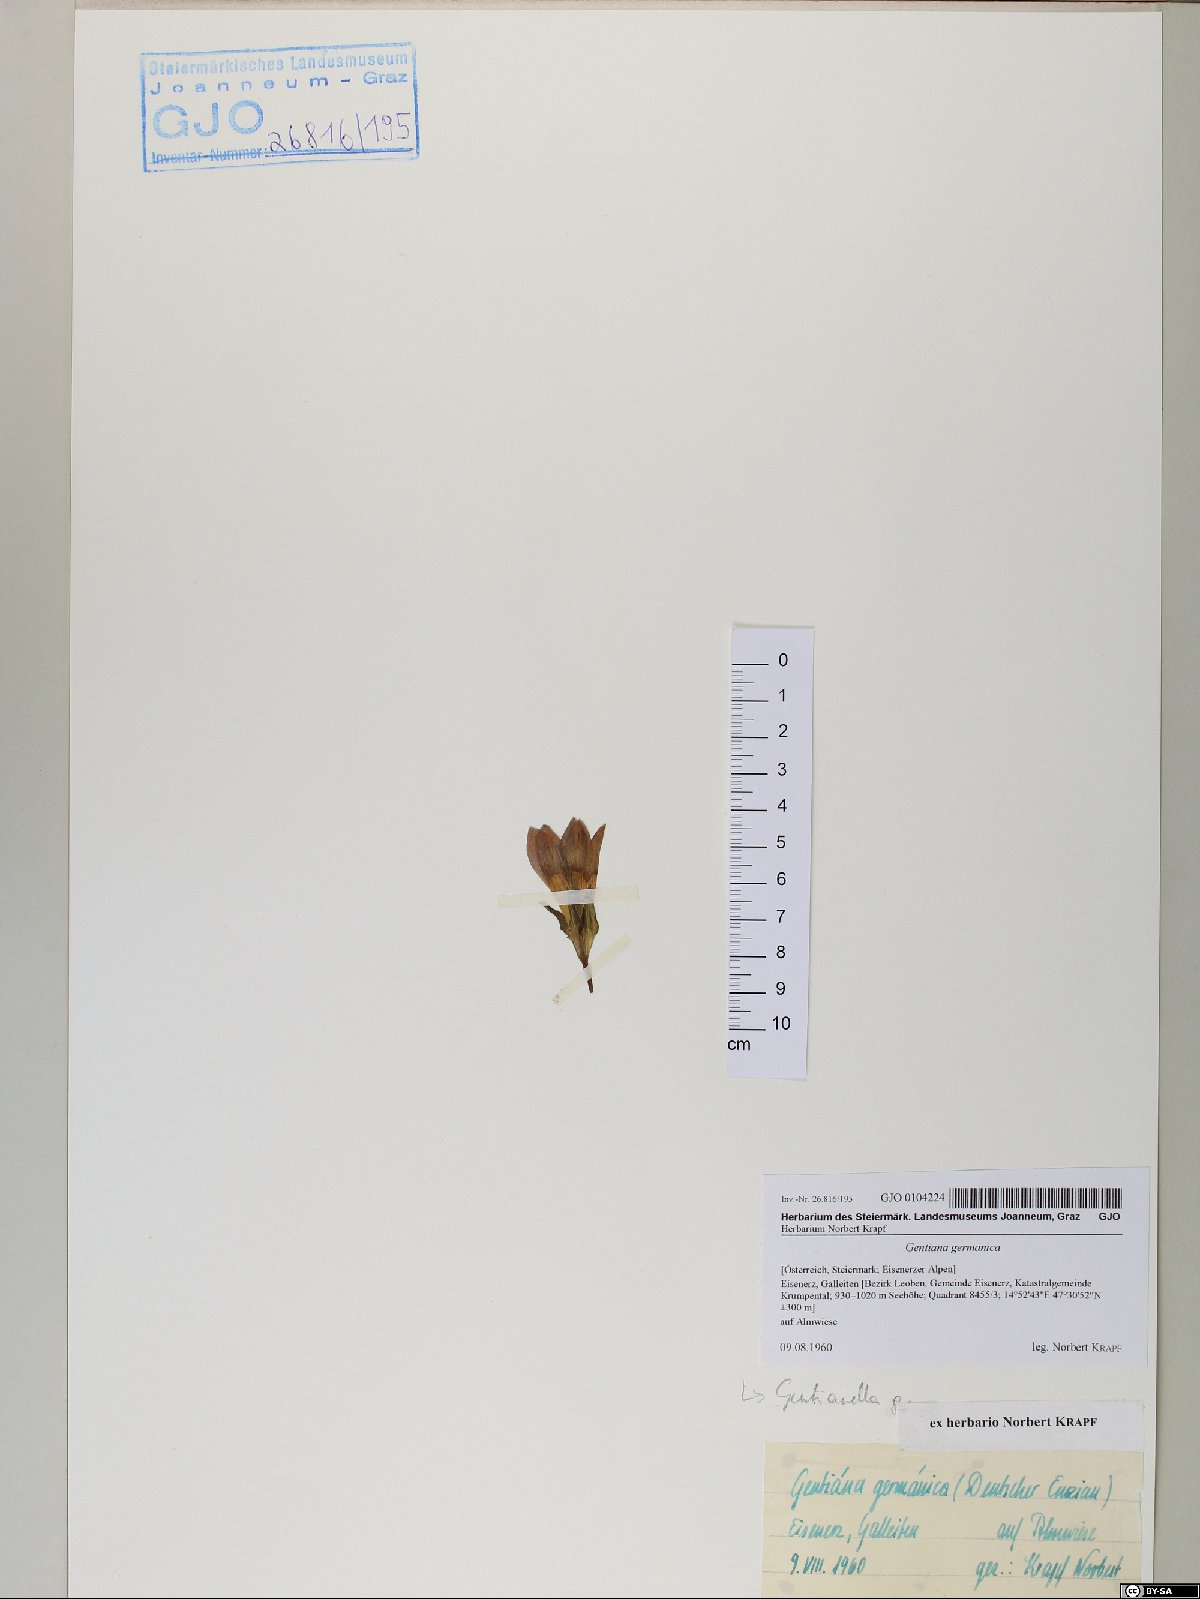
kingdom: Plantae
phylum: Tracheophyta
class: Magnoliopsida
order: Gentianales
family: Gentianaceae
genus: Gentianella
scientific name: Gentianella germanica
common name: Chiltern-gentian
